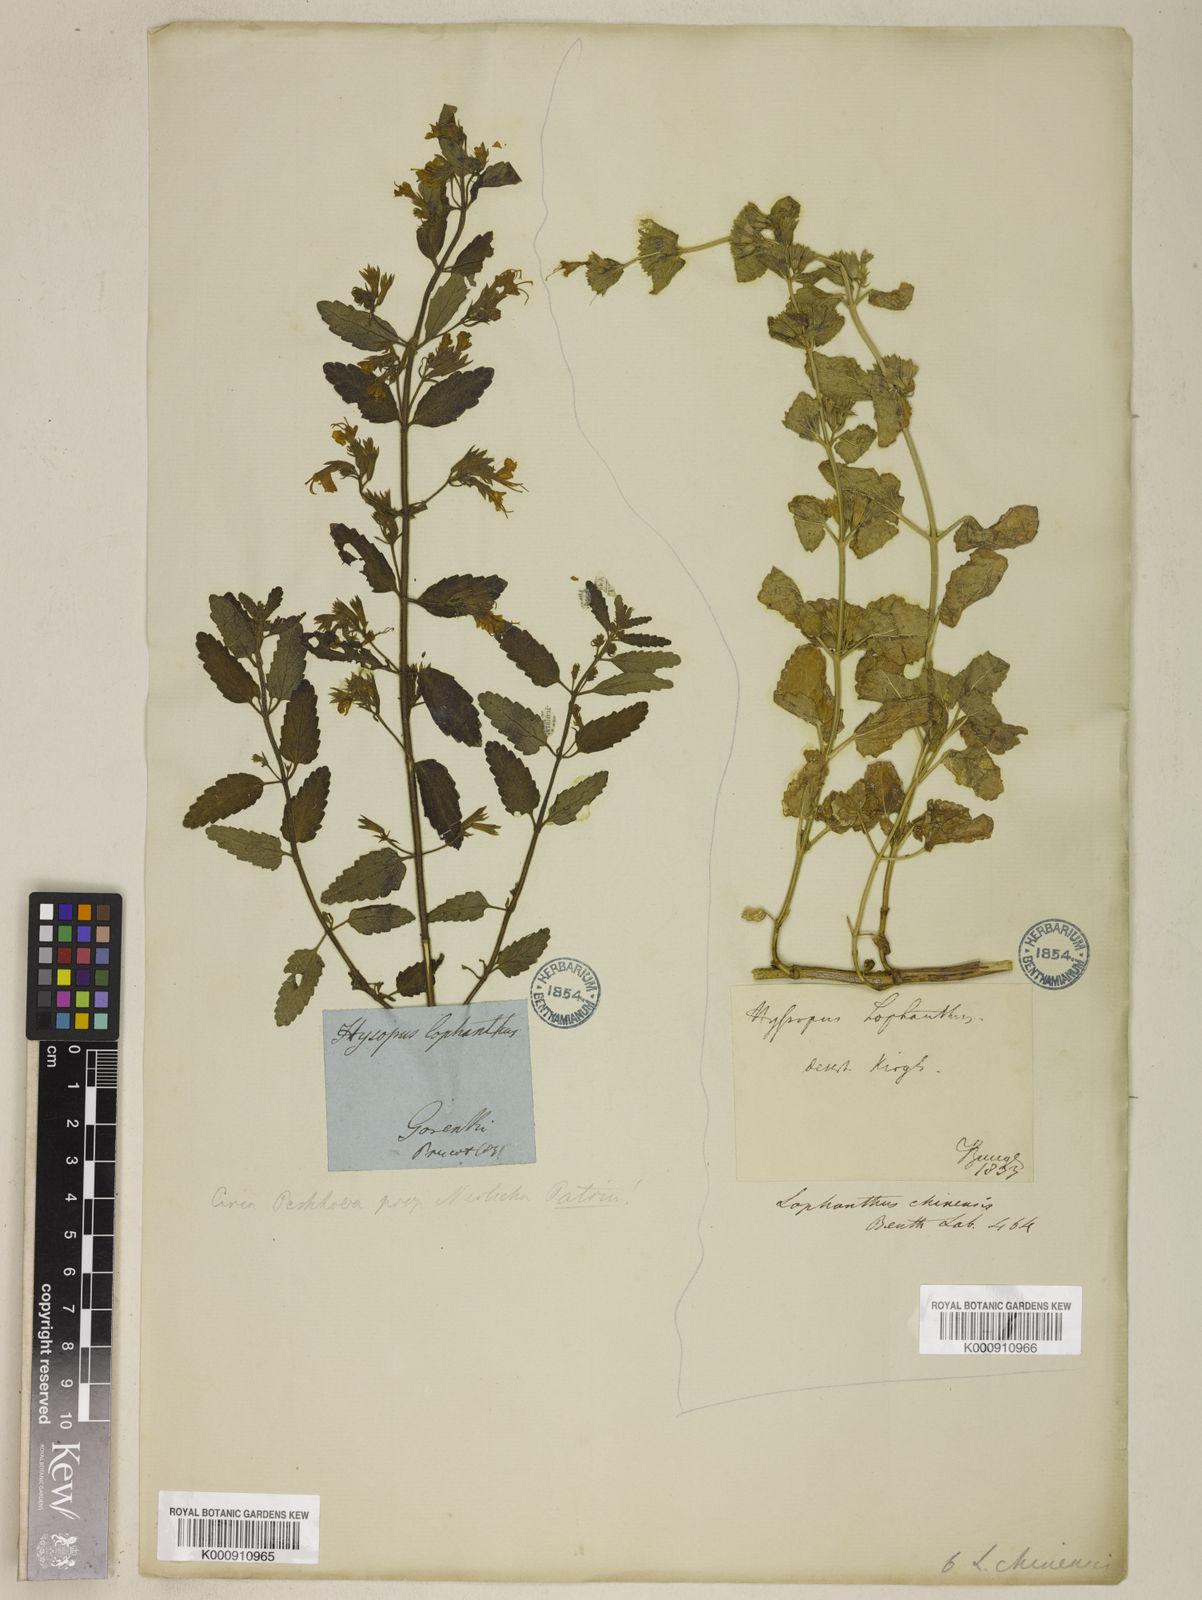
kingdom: Plantae
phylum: Tracheophyta
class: Magnoliopsida
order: Lamiales
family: Lamiaceae
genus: Nepeta
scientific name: Nepeta lophanthus
